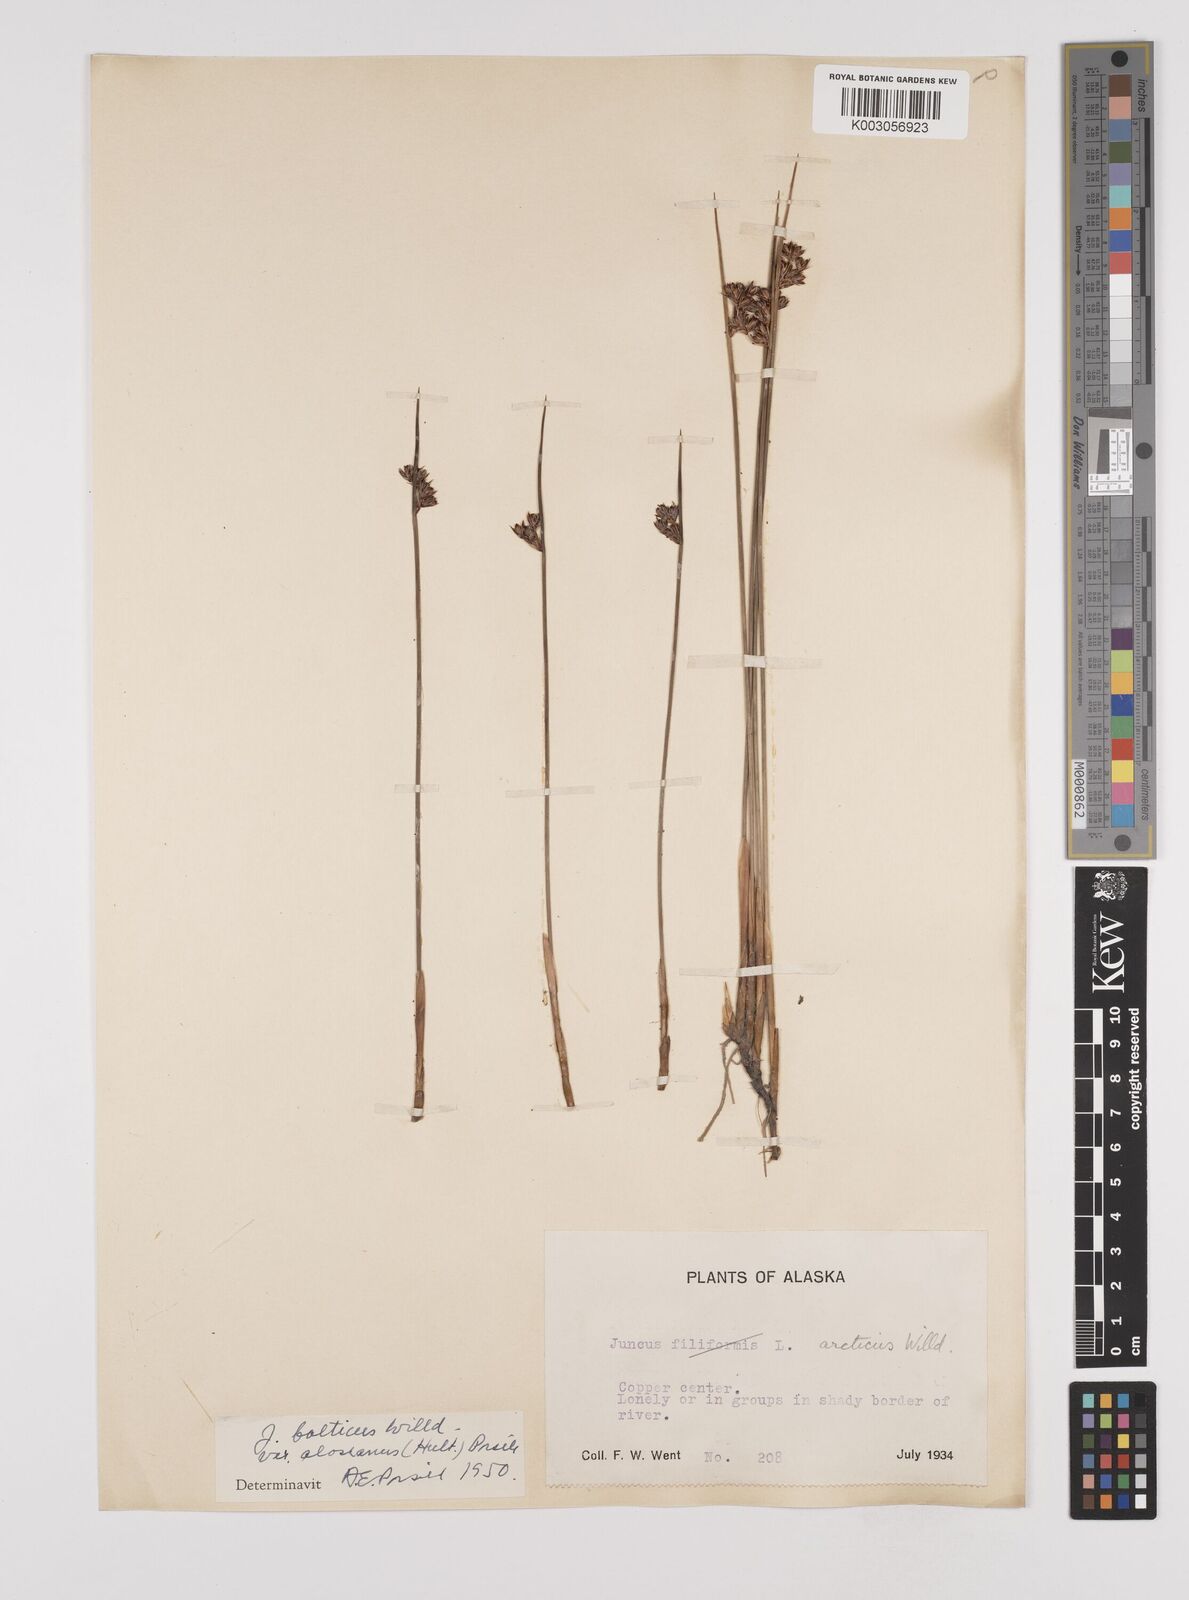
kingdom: Plantae
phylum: Tracheophyta
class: Liliopsida
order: Poales
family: Juncaceae
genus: Juncus
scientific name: Juncus arcticus
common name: Arctic rush
